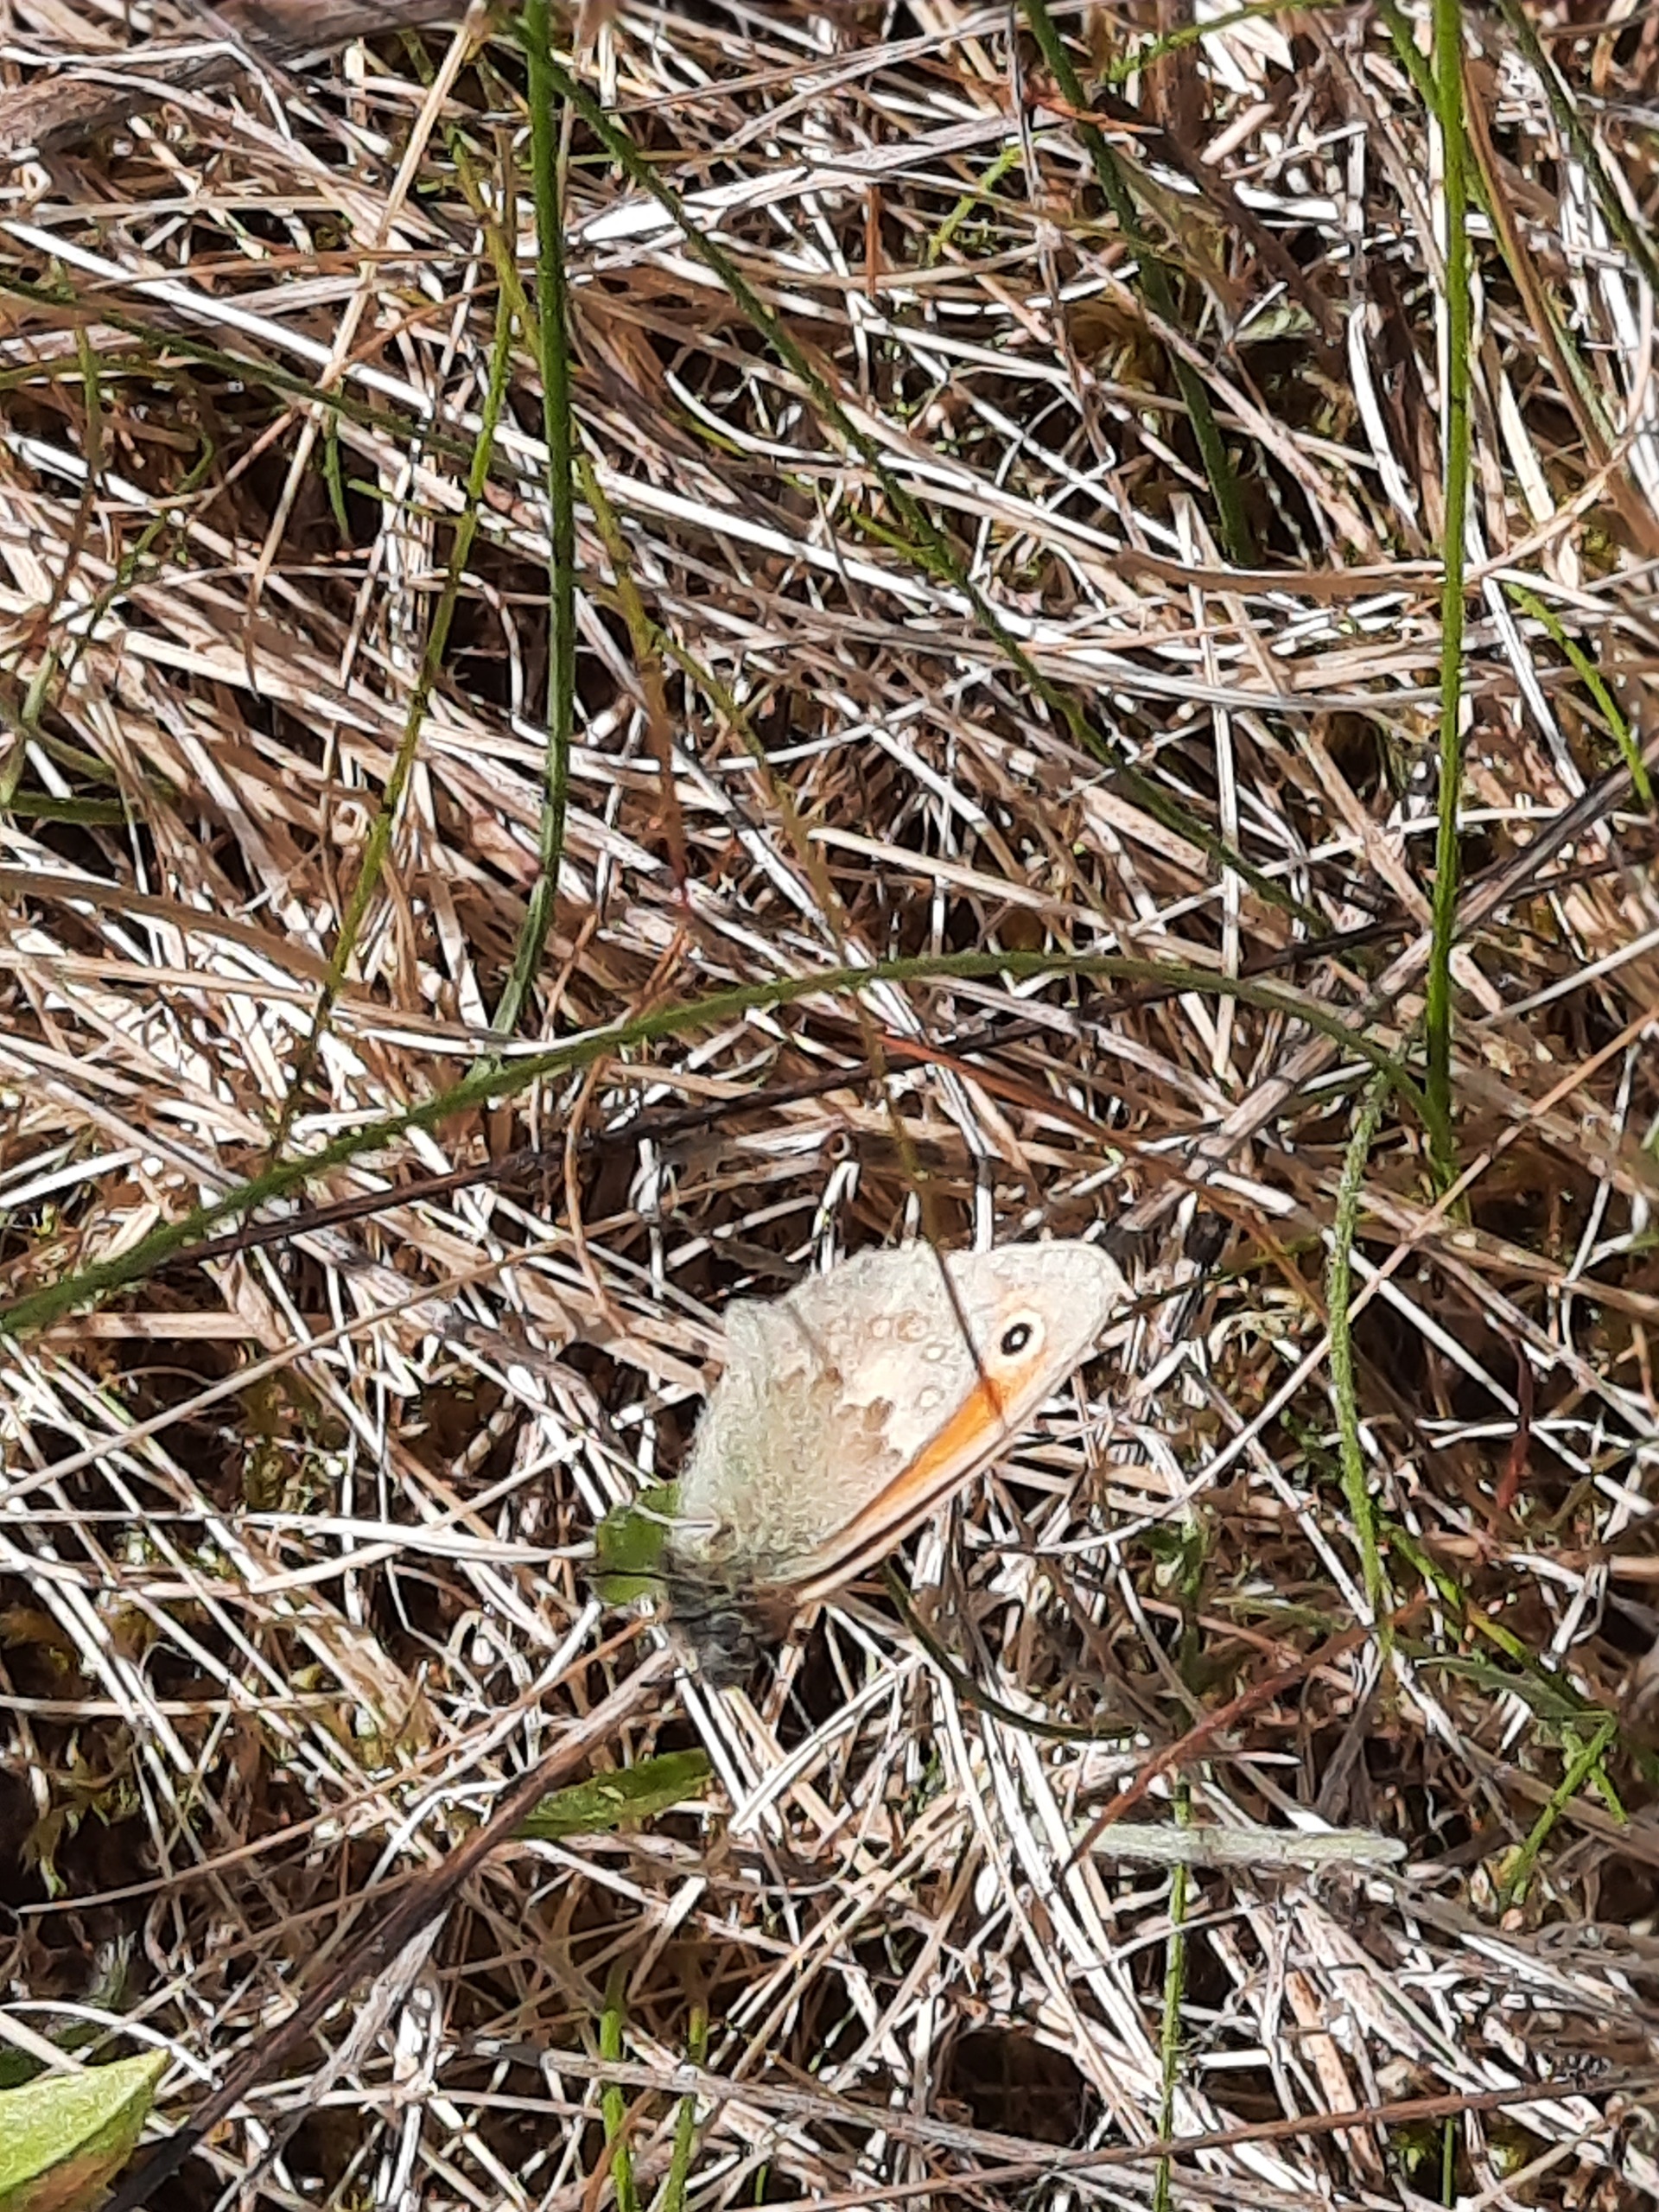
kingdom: Animalia
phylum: Arthropoda
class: Insecta
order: Lepidoptera
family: Nymphalidae
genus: Coenonympha
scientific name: Coenonympha pamphilus
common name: Okkergul randøje
